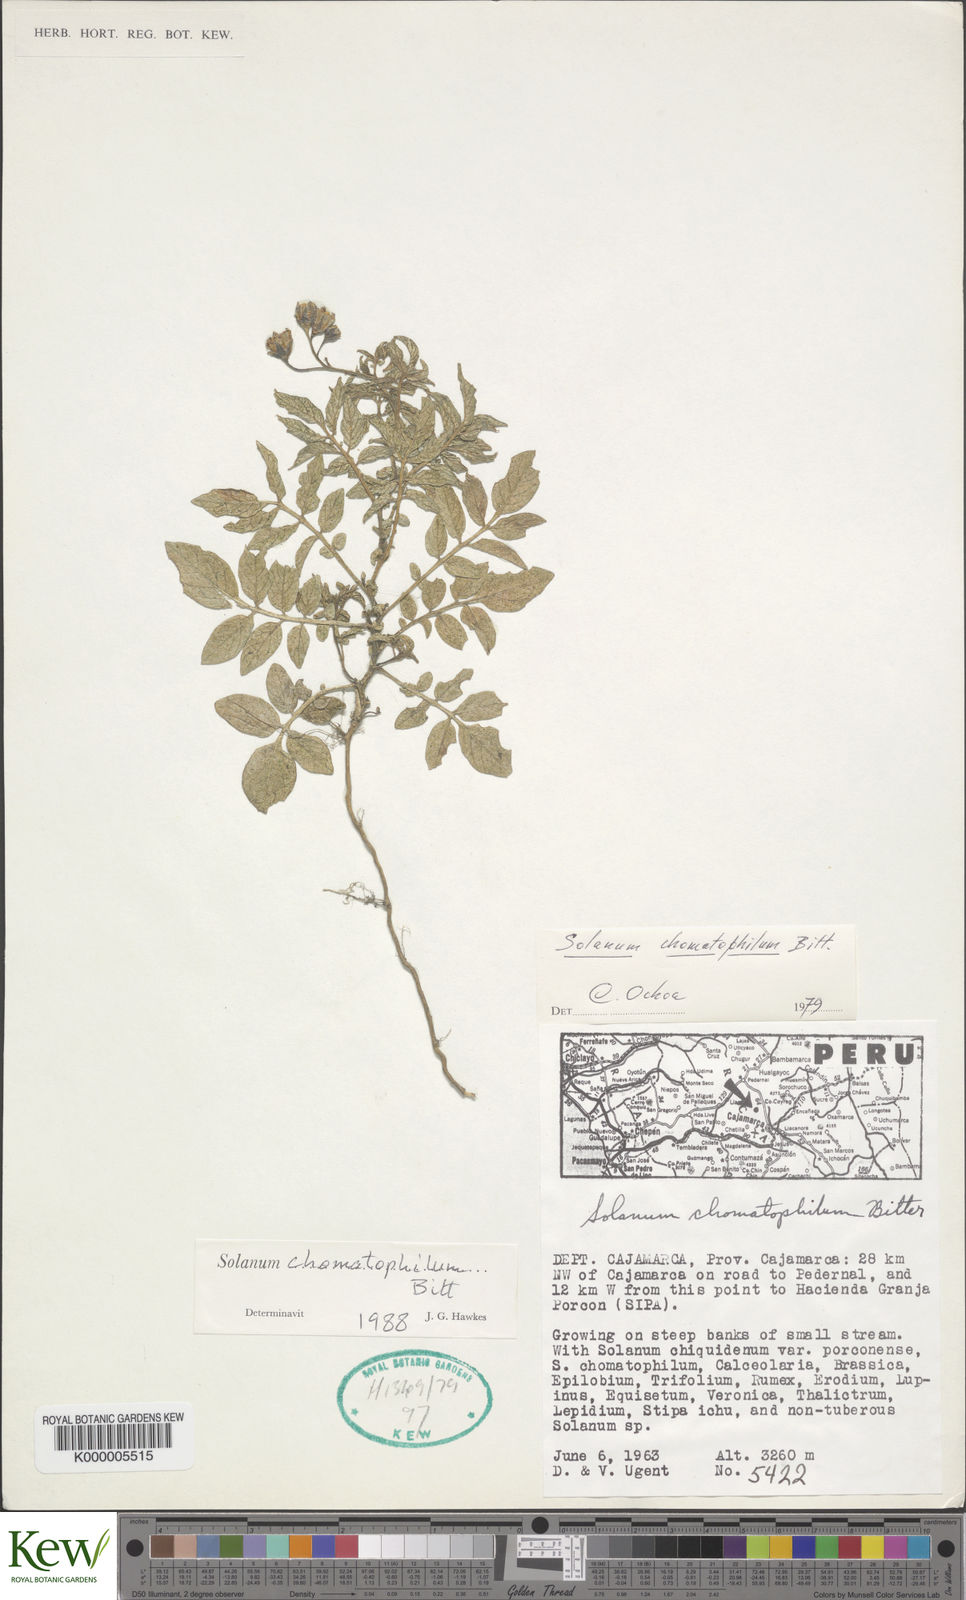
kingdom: Plantae
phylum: Tracheophyta
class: Magnoliopsida
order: Solanales
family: Solanaceae
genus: Solanum
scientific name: Solanum chomatophilum
